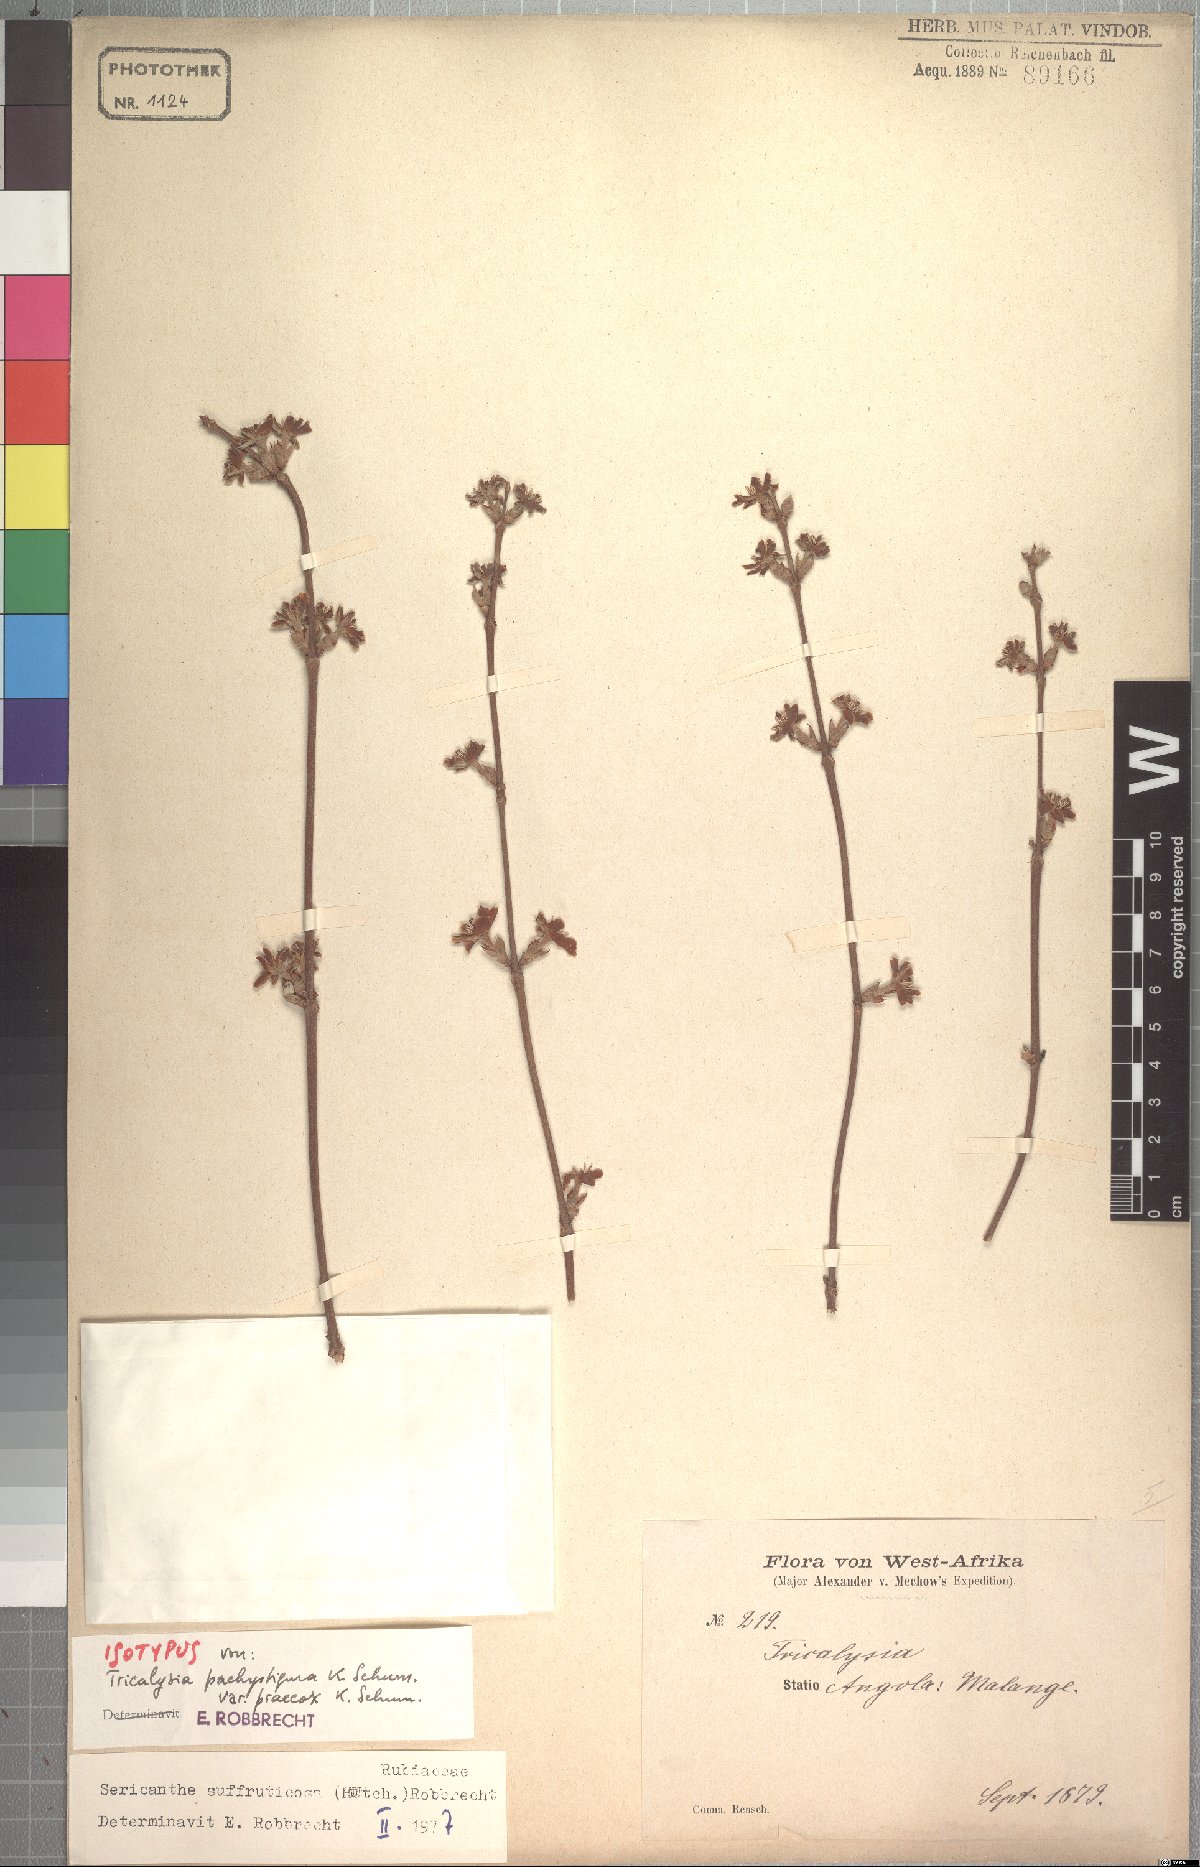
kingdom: Plantae
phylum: Tracheophyta
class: Magnoliopsida
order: Gentianales
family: Rubiaceae
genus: Sericanthe
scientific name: Sericanthe suffruticosa
